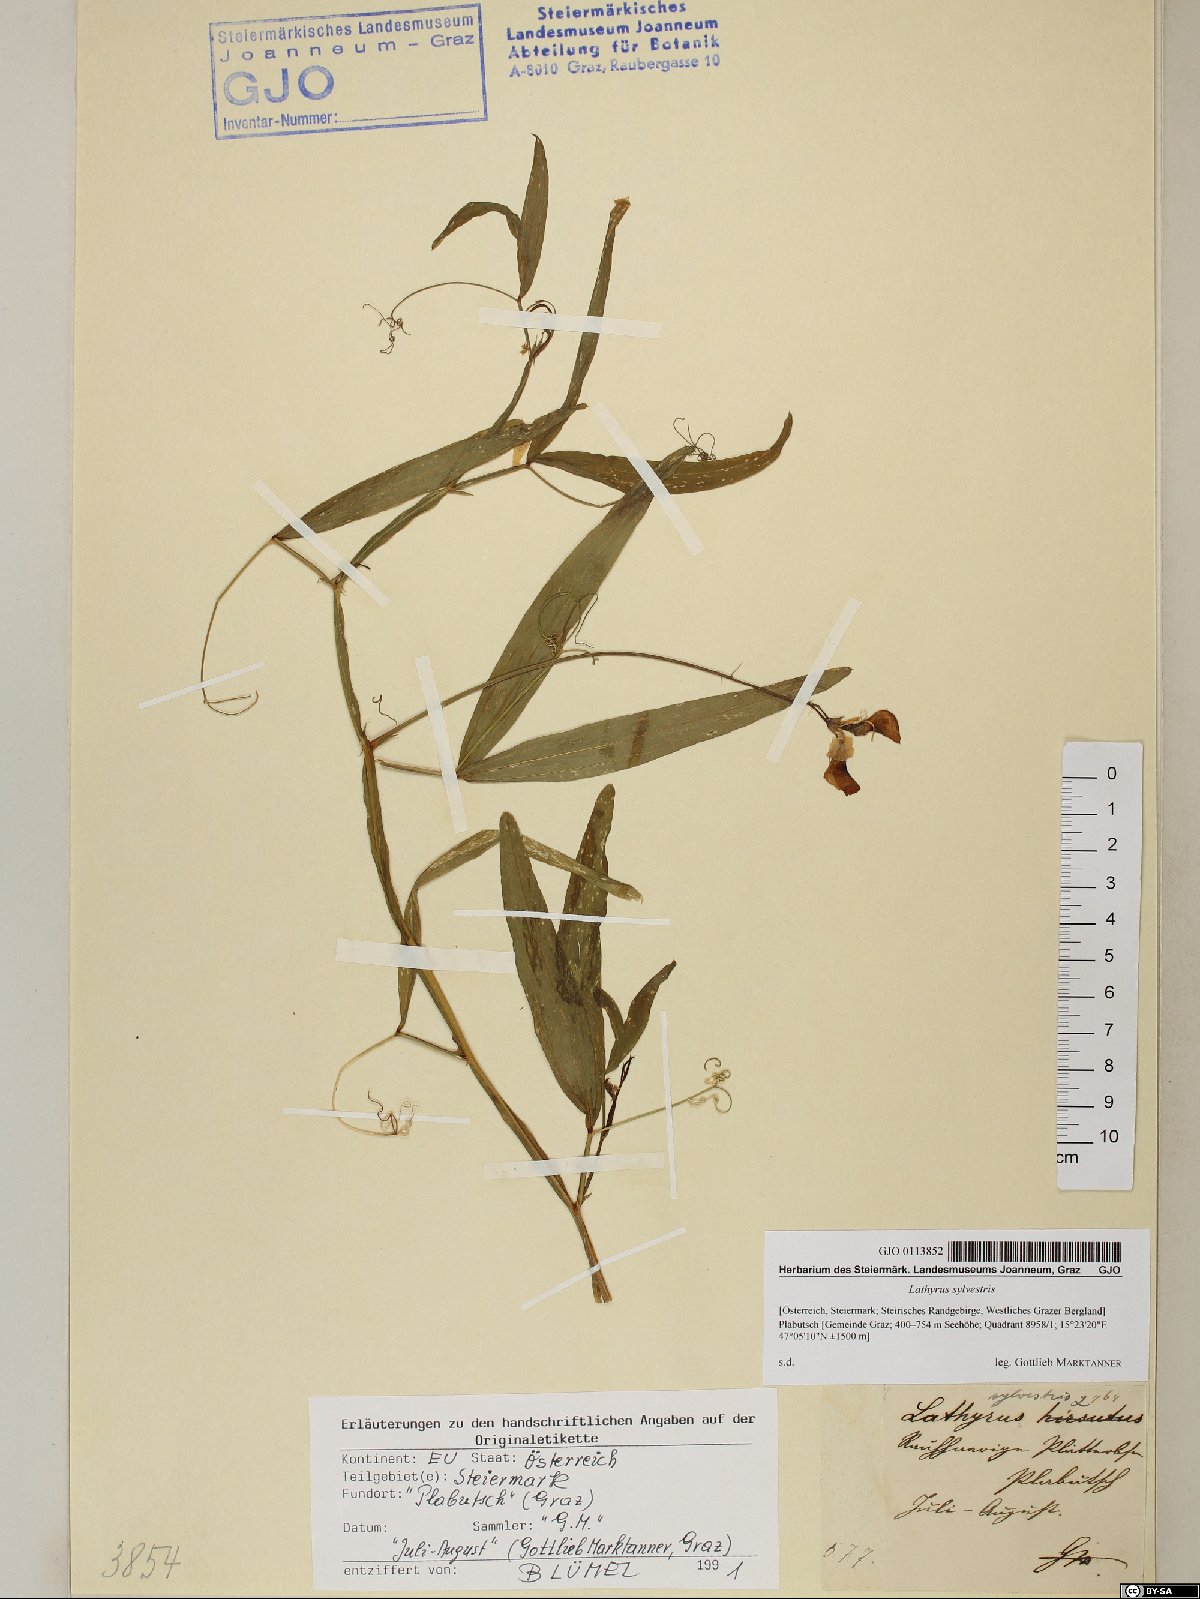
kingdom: Plantae
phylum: Tracheophyta
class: Magnoliopsida
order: Fabales
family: Fabaceae
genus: Lathyrus
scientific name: Lathyrus sylvestris
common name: Flat pea
